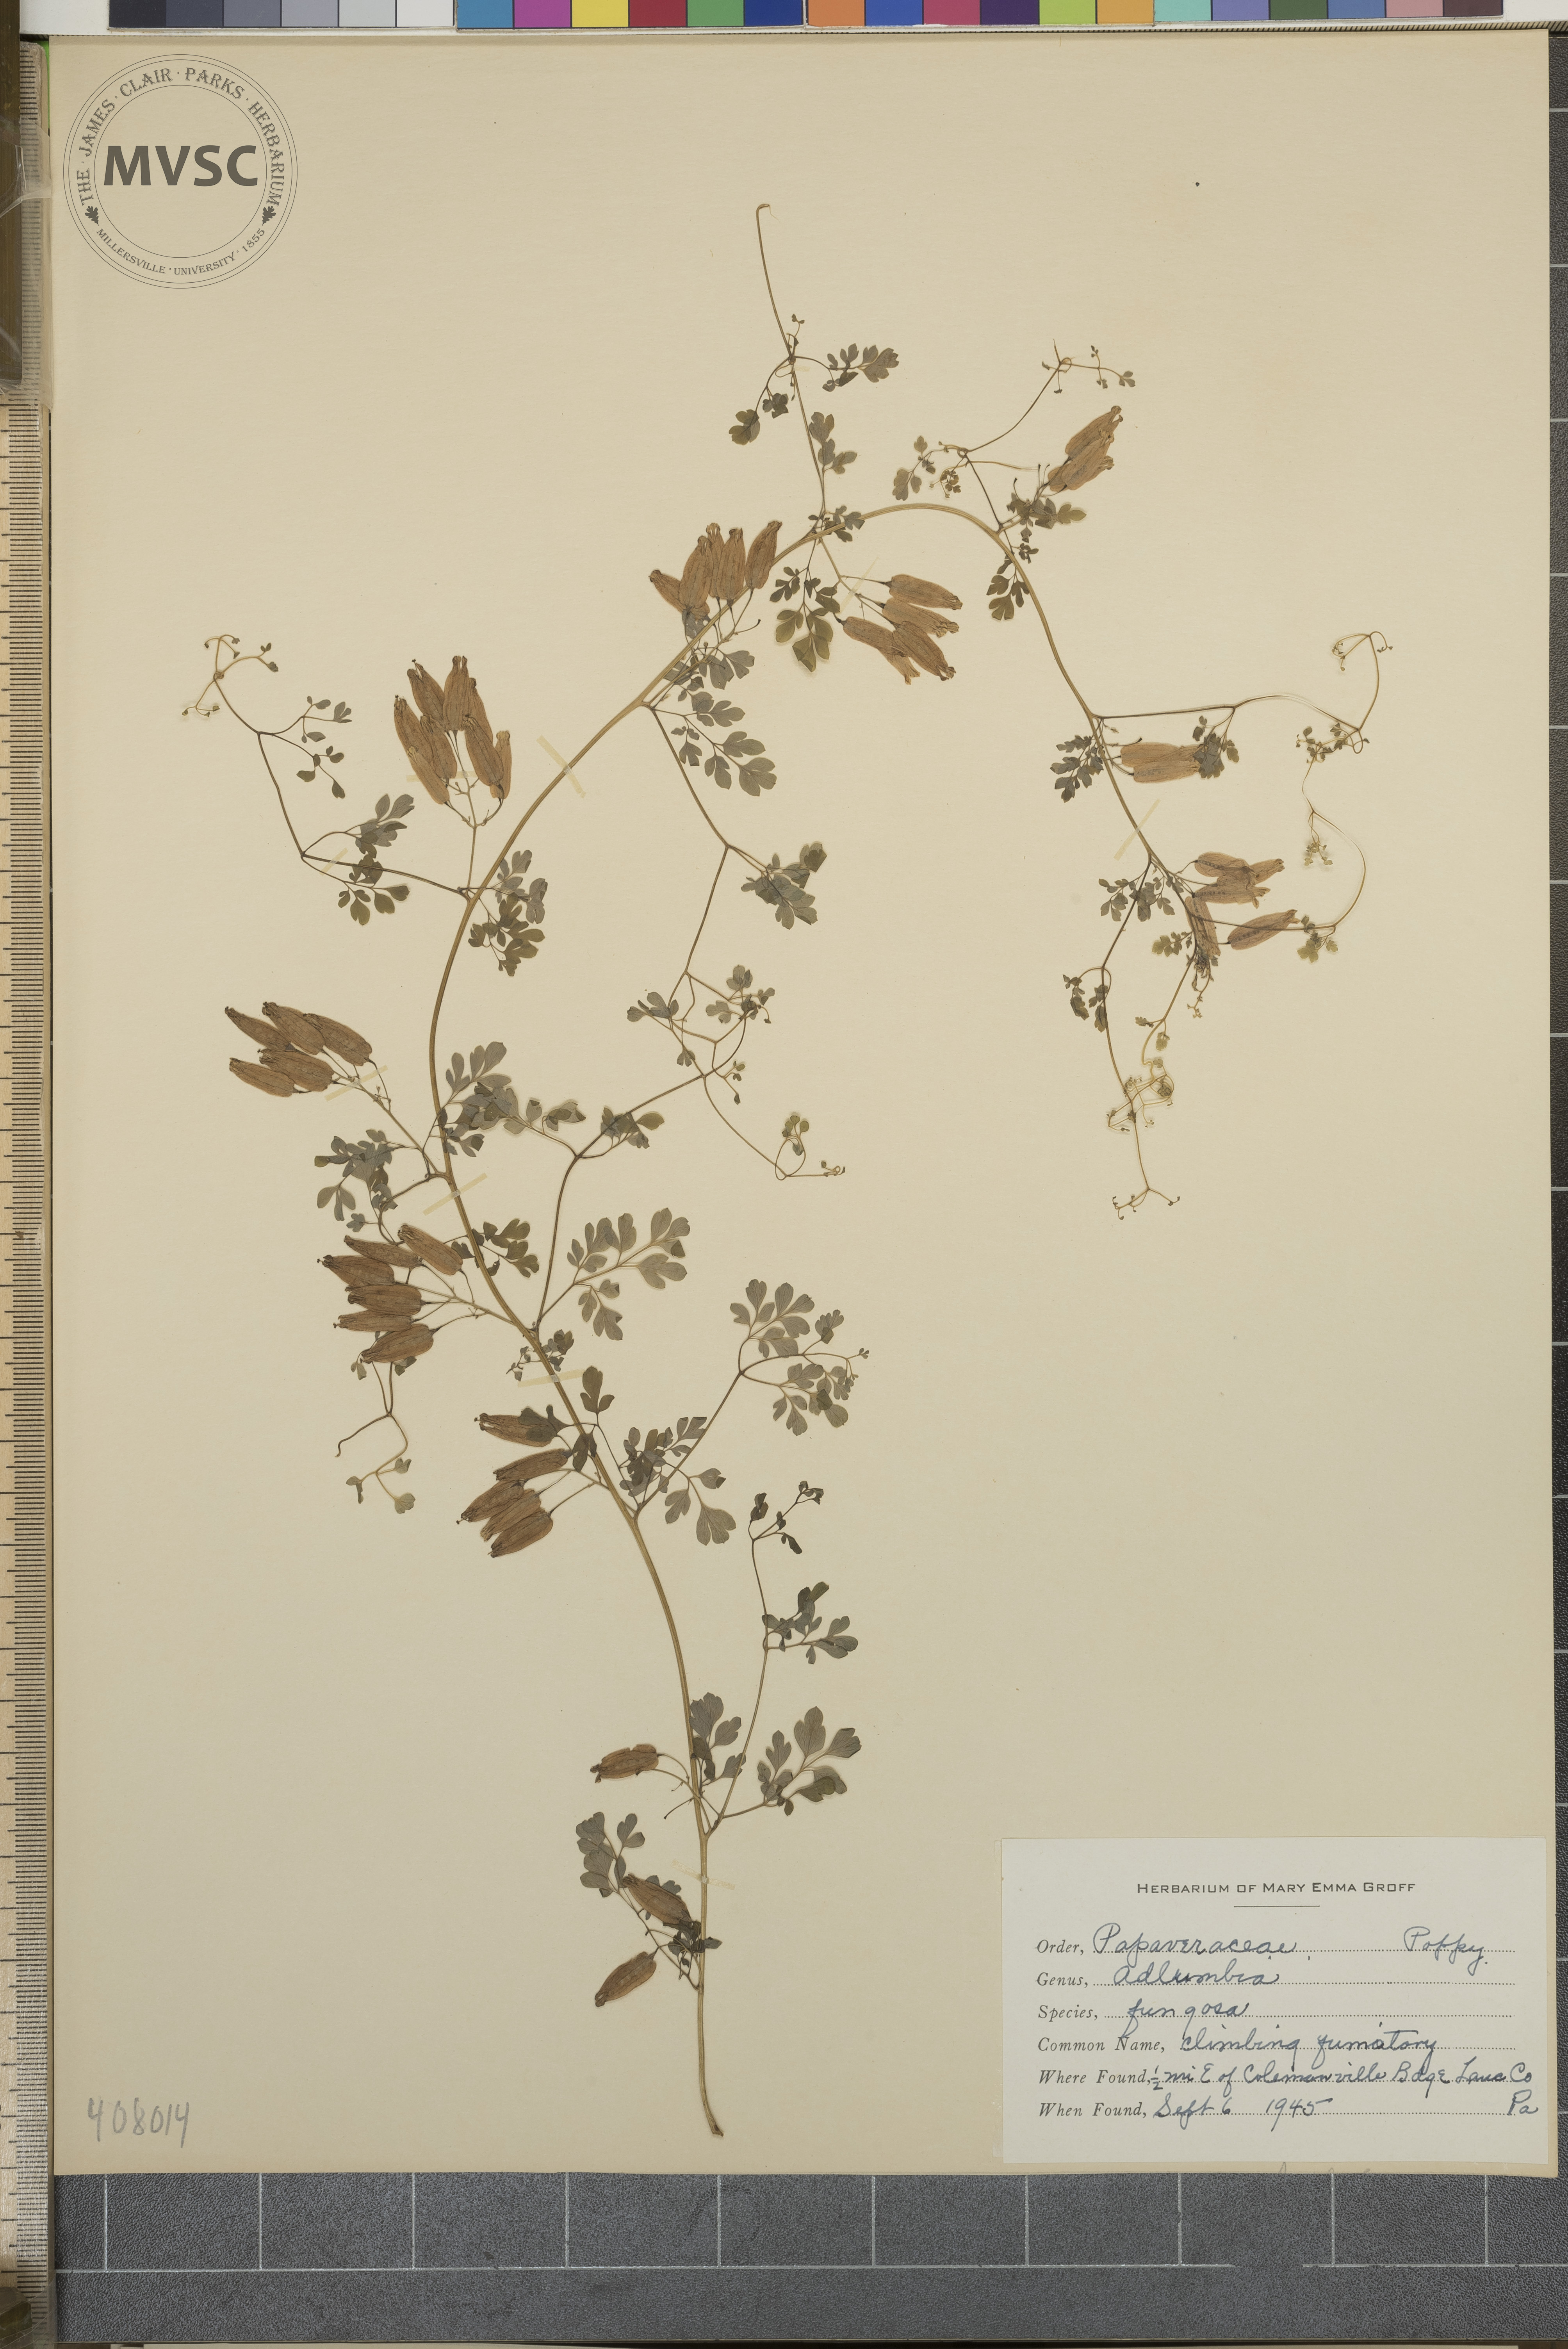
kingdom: Plantae
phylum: Tracheophyta
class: Magnoliopsida
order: Ranunculales
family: Papaveraceae
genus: Adlumia
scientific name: Adlumia fungosa
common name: Climbing Fumitory
